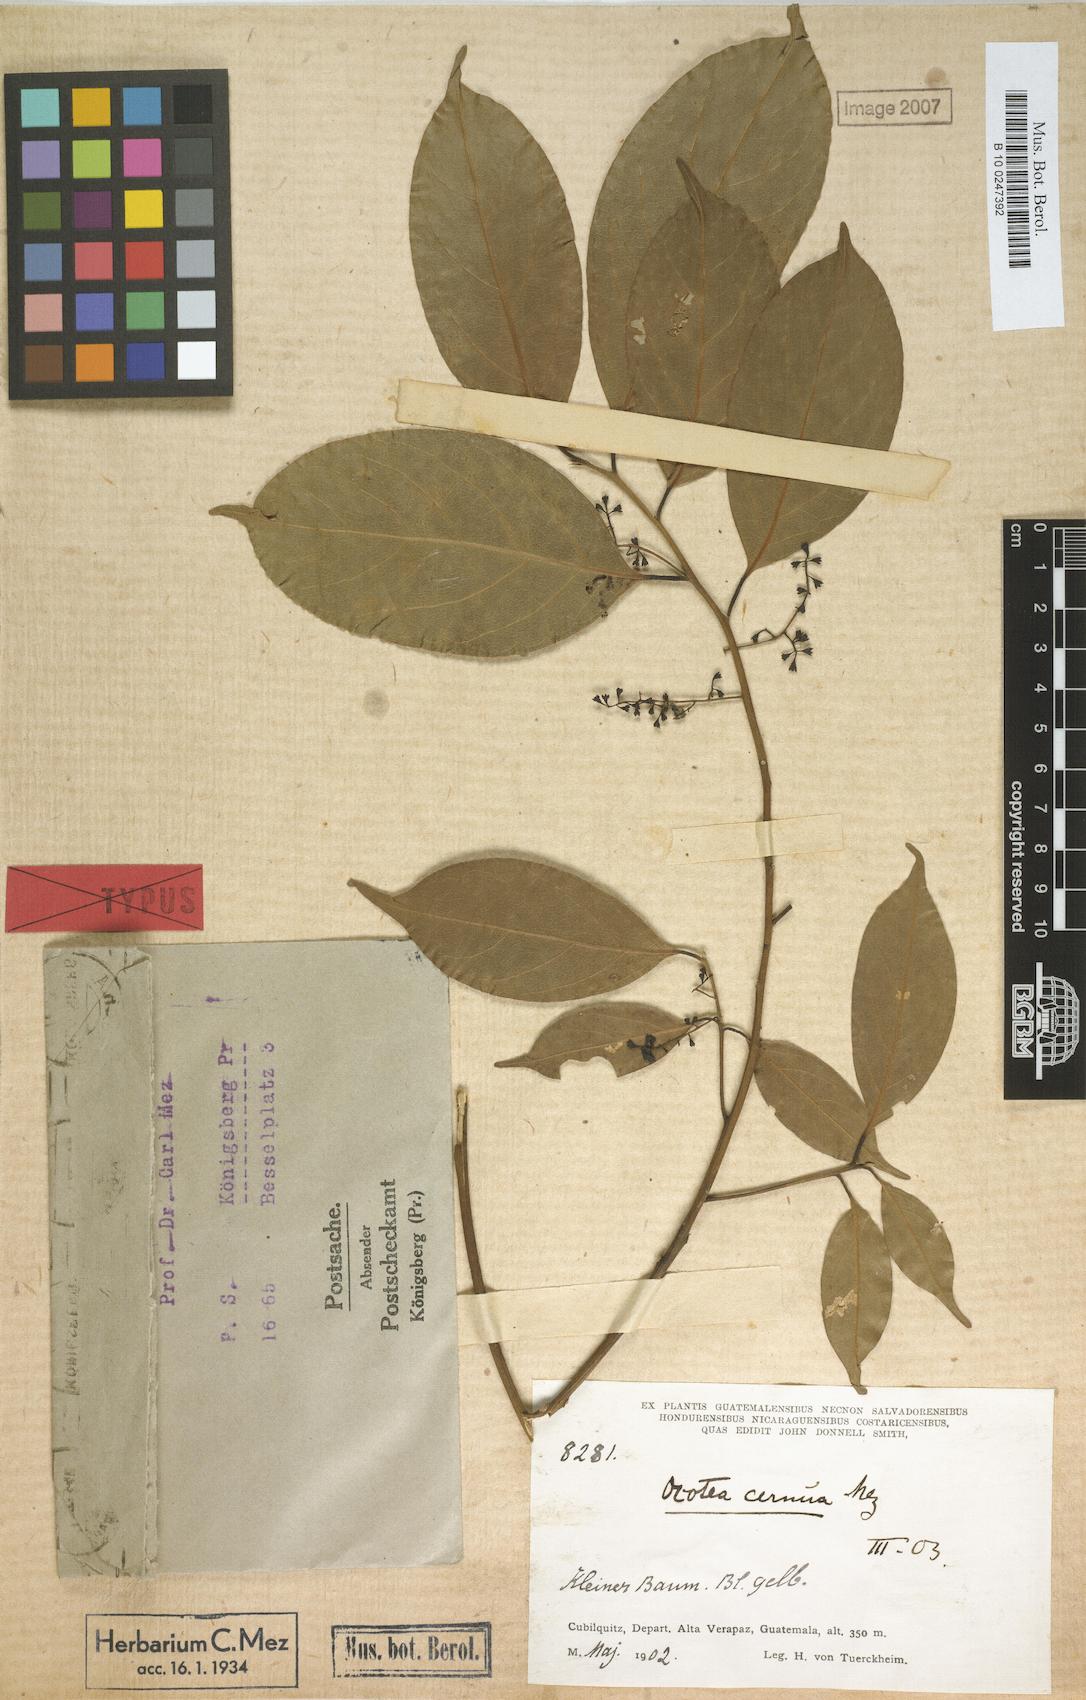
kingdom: Plantae
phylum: Tracheophyta
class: Magnoliopsida
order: Laurales
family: Lauraceae
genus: Ocotea
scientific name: Ocotea leptobotra
